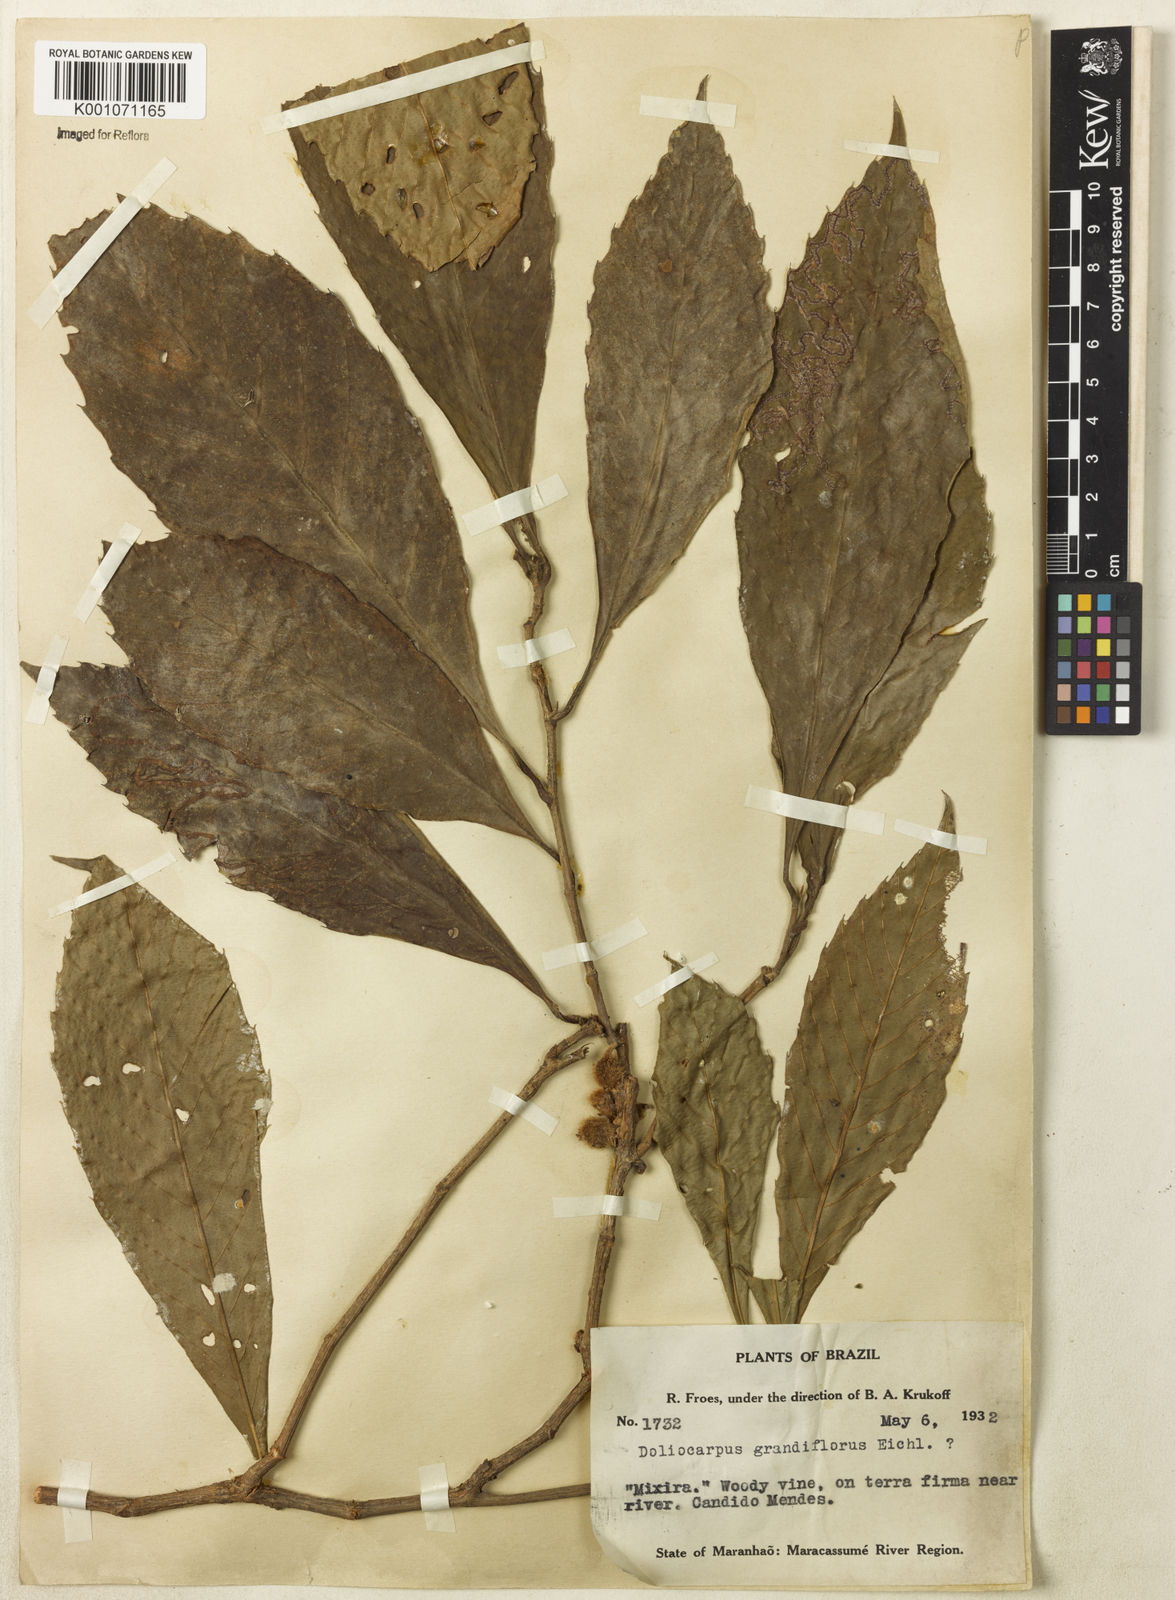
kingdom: Plantae
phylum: Tracheophyta
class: Magnoliopsida
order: Dilleniales
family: Dilleniaceae
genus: Doliocarpus
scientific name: Doliocarpus grandiflorus
